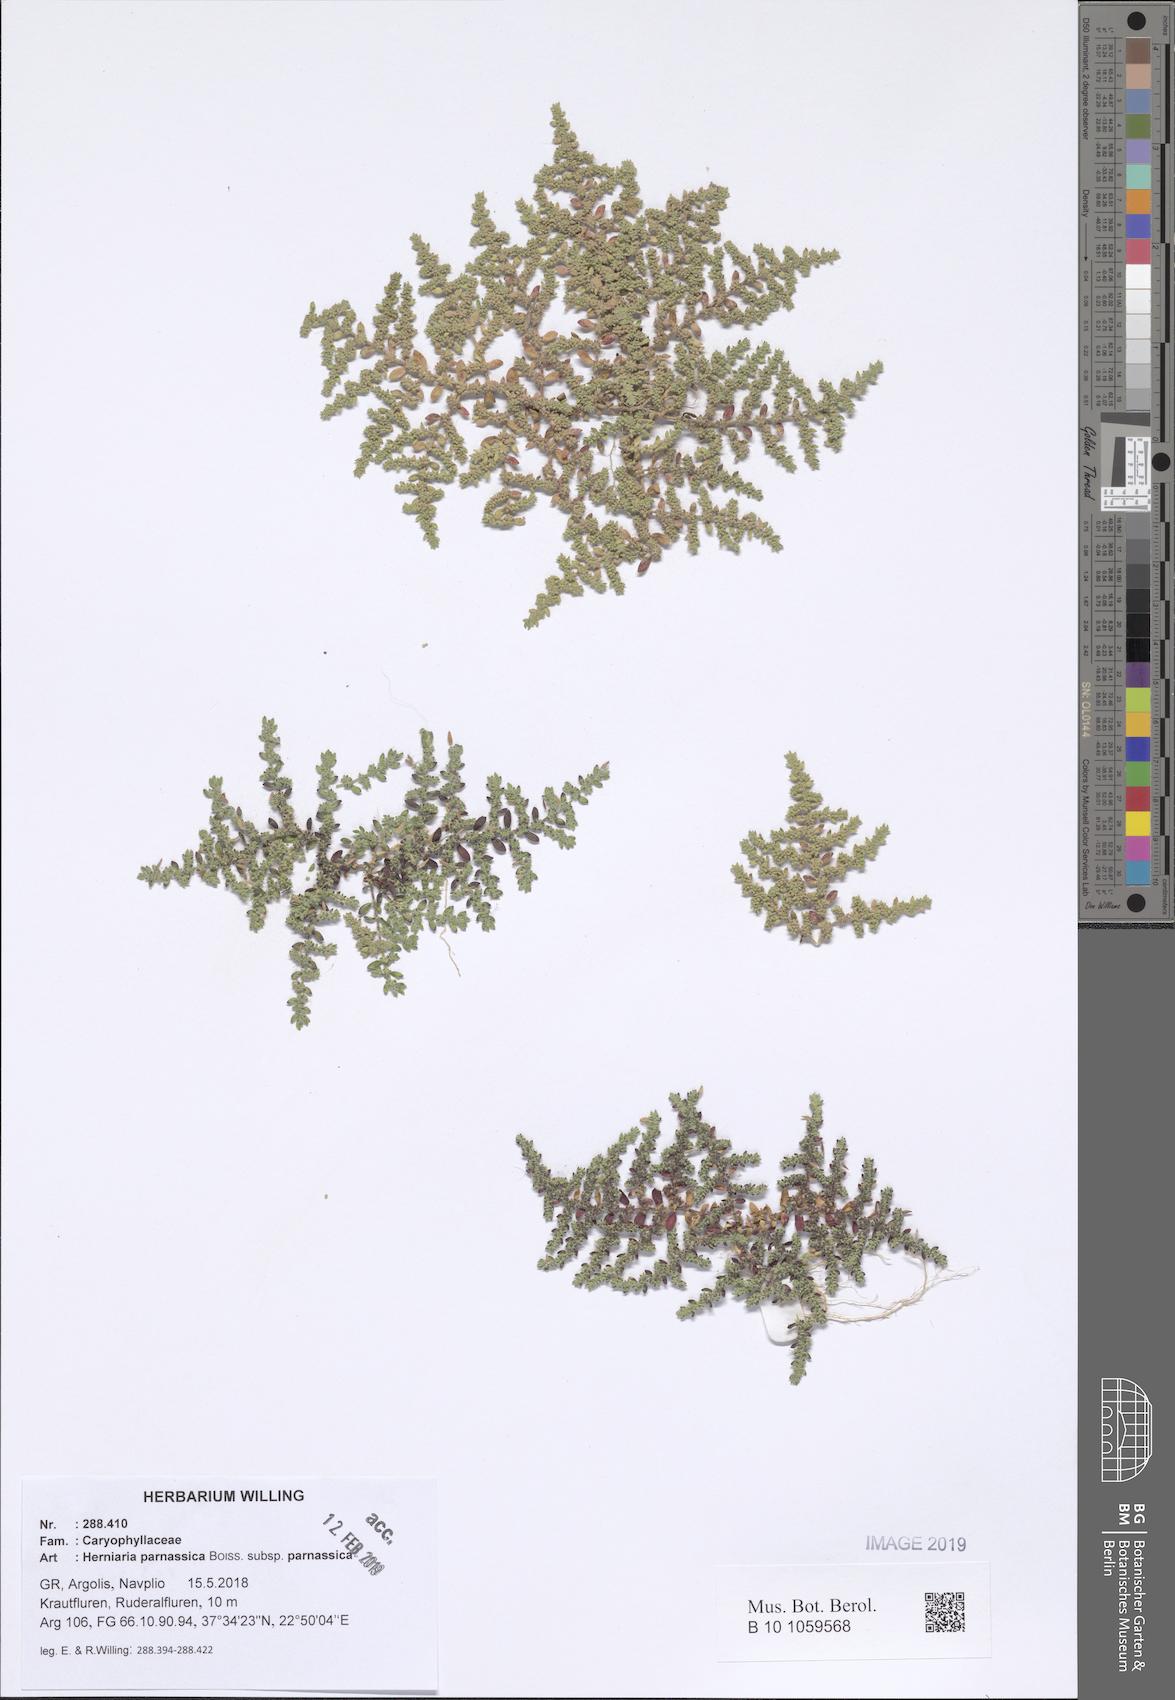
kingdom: Plantae
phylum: Tracheophyta
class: Magnoliopsida
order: Caryophyllales
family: Caryophyllaceae
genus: Herniaria
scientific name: Herniaria parnassica
